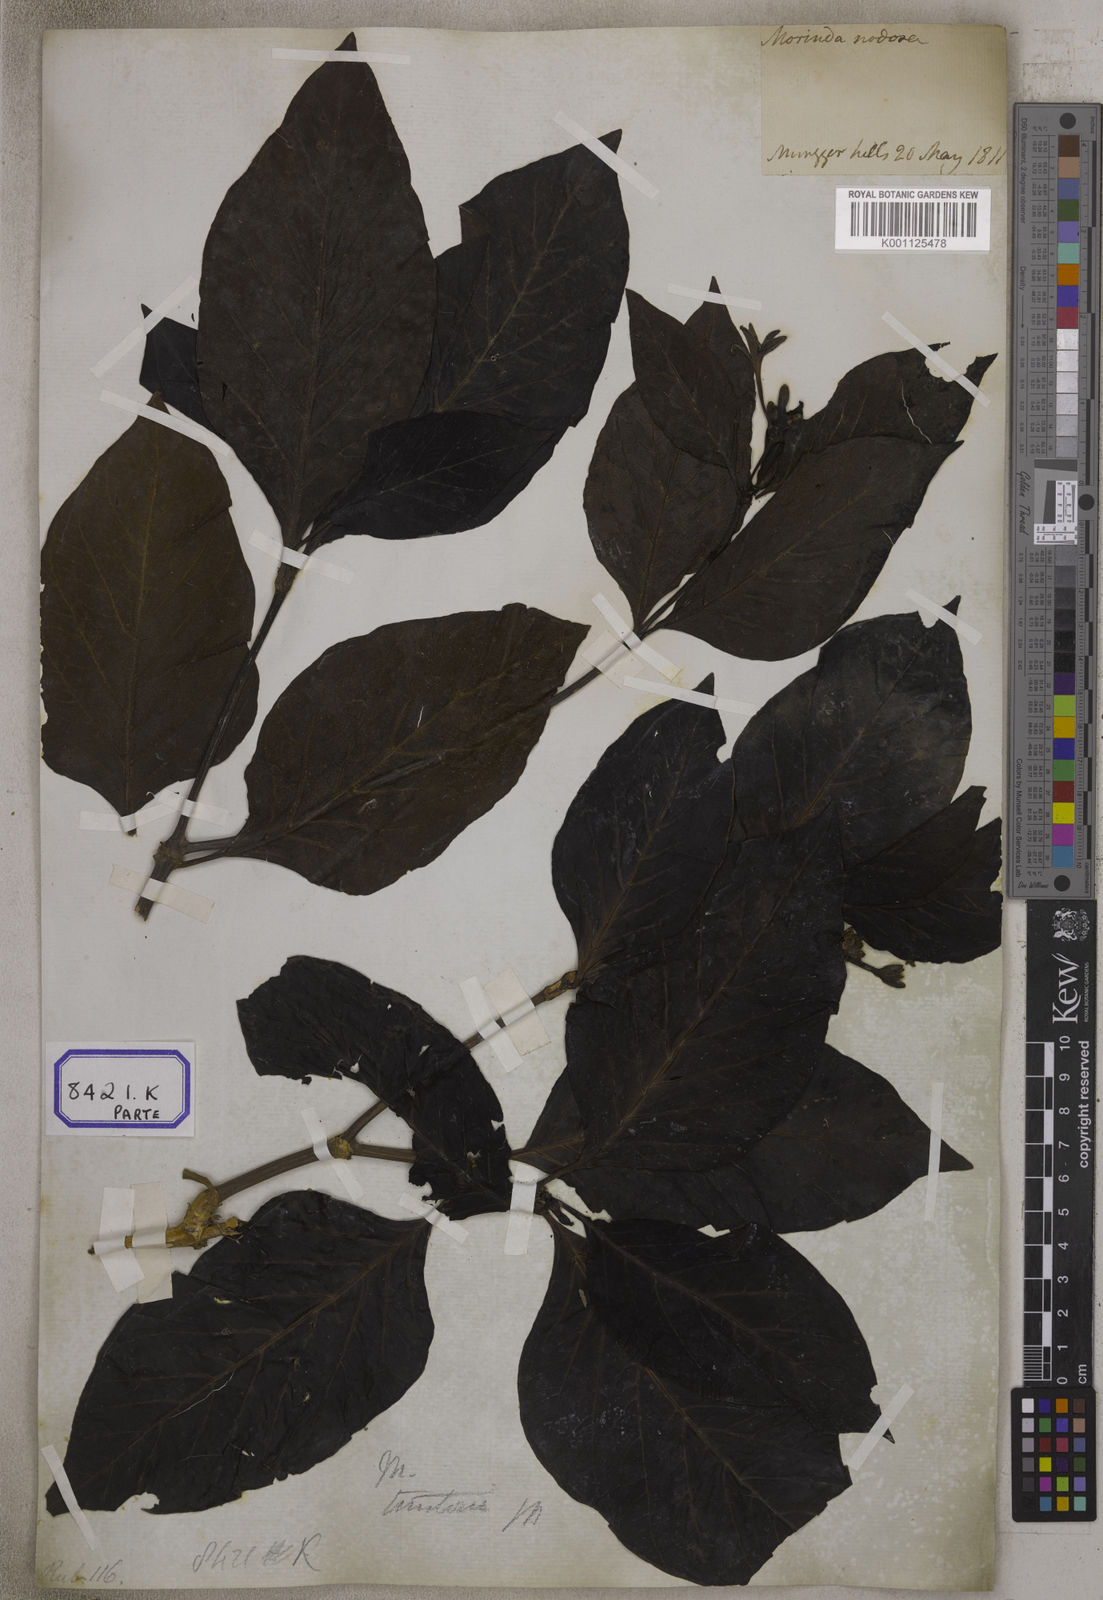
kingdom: Plantae
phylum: Tracheophyta
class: Magnoliopsida
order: Gentianales
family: Rubiaceae
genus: Morinda
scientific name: Morinda coreia
